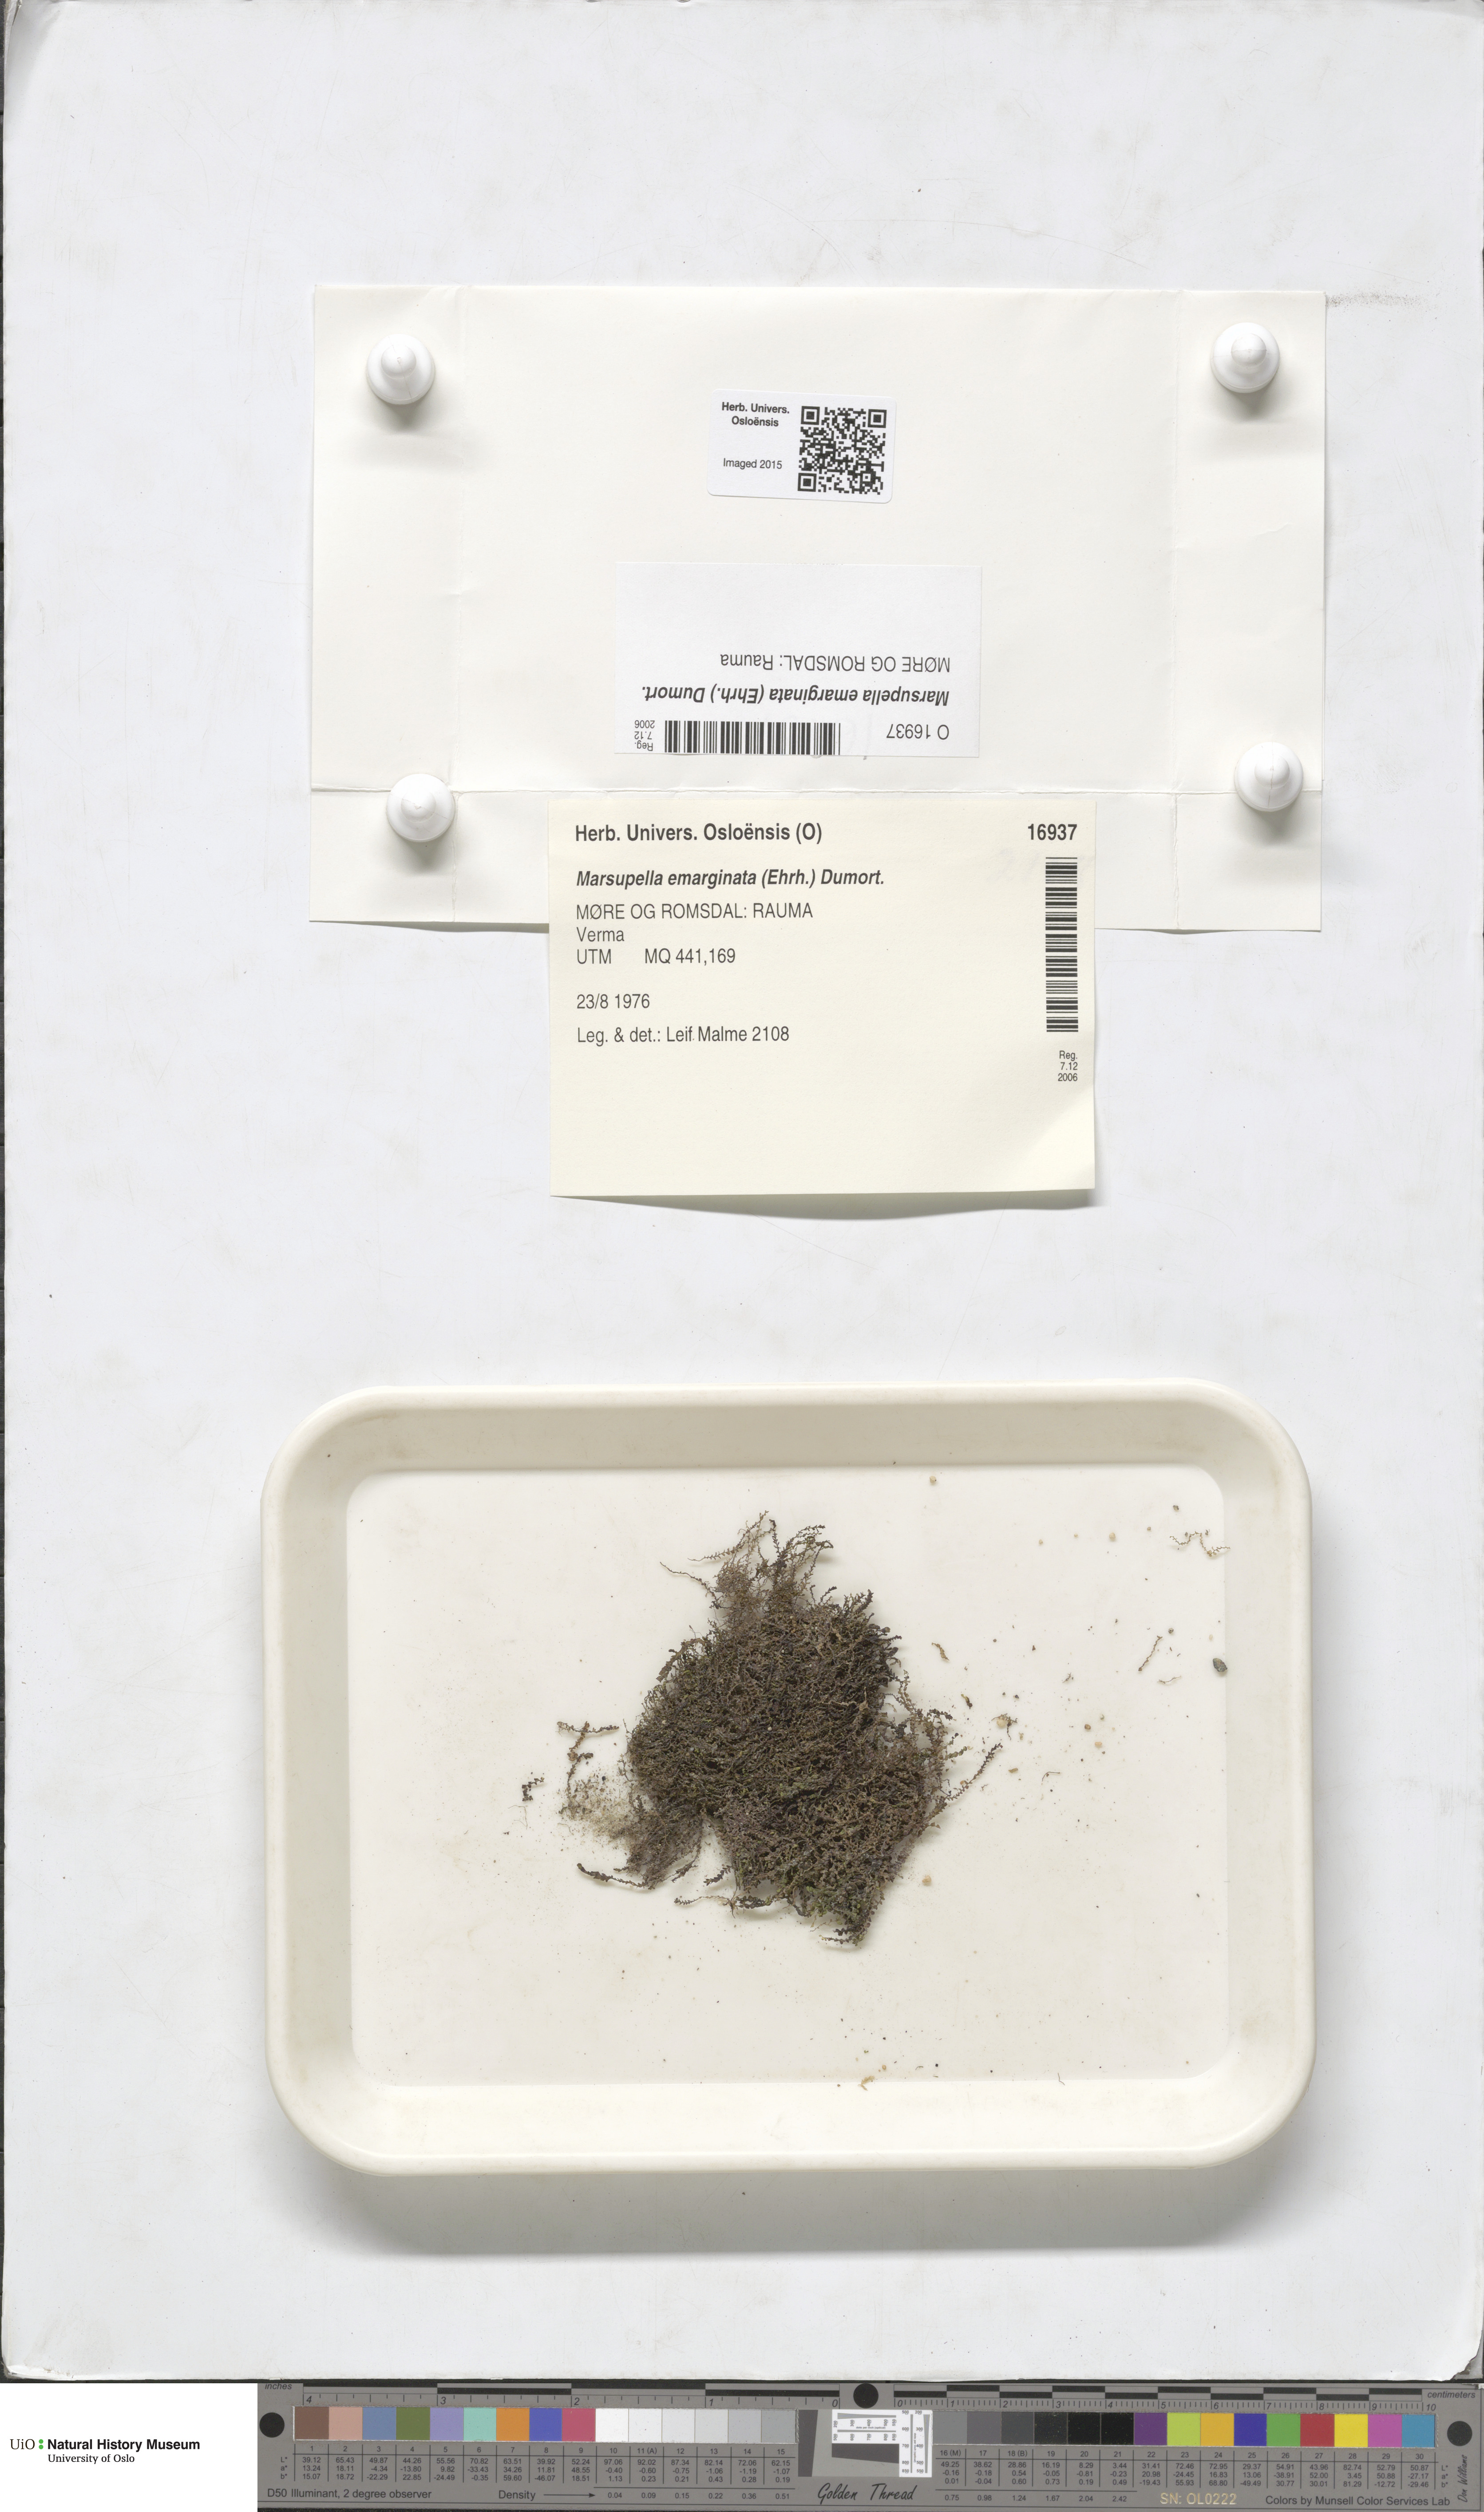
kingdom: Plantae
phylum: Marchantiophyta
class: Jungermanniopsida
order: Jungermanniales
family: Gymnomitriaceae
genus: Marsupella
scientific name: Marsupella emarginata
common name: Notched rustwort
